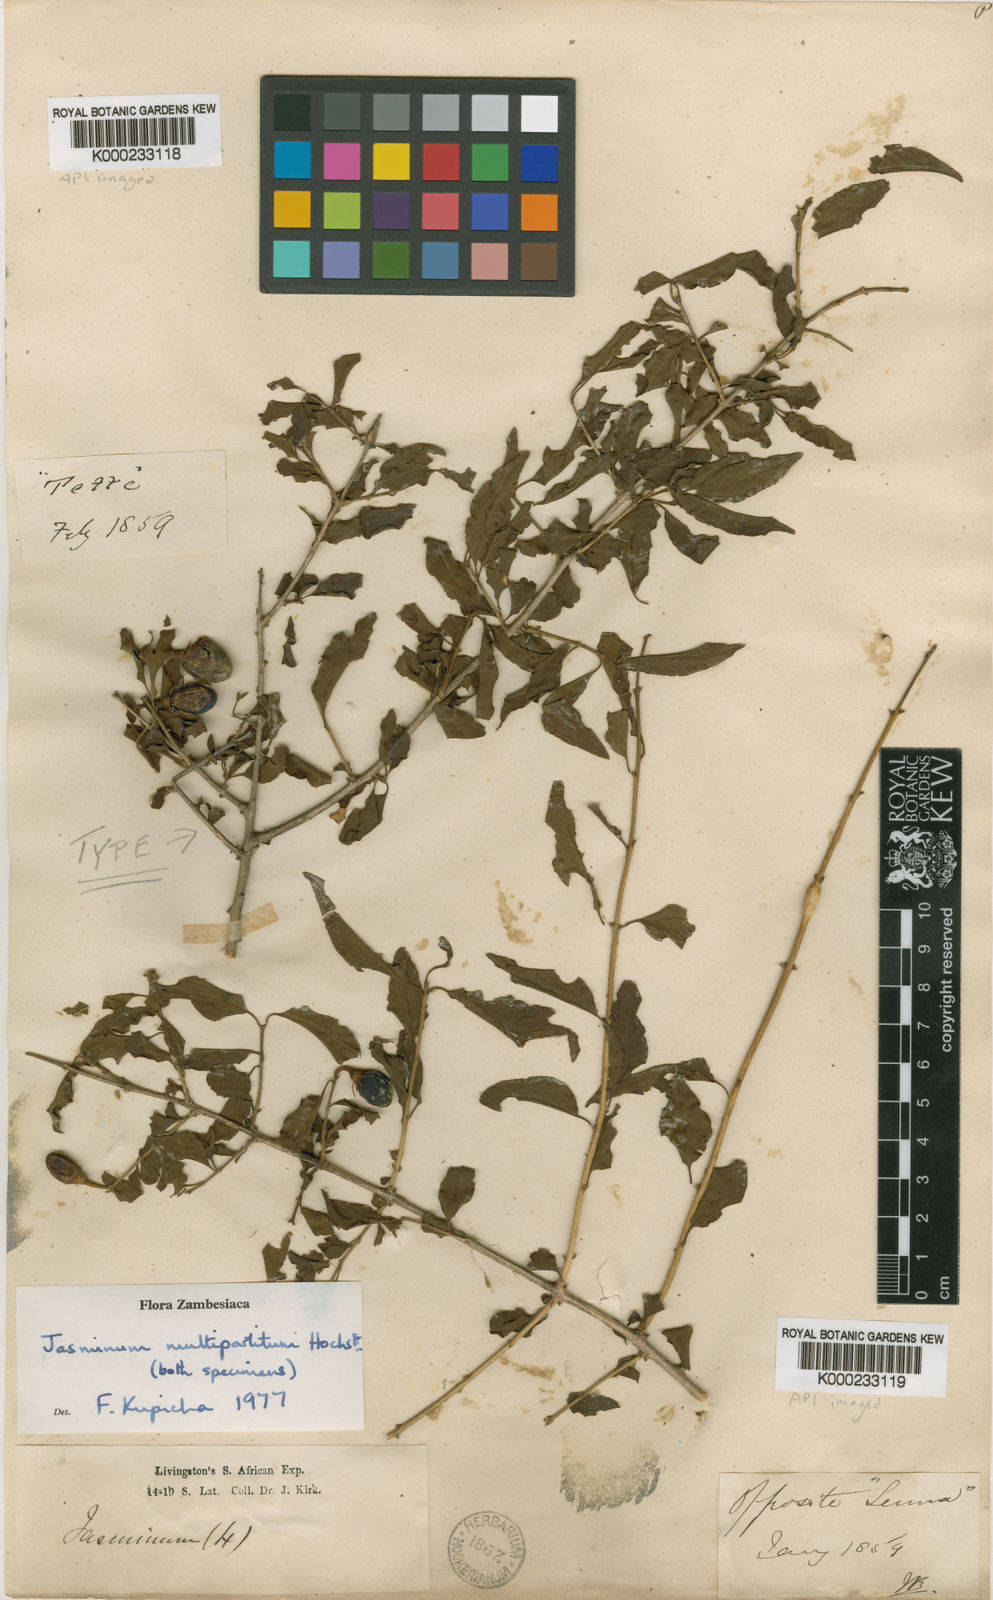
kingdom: Plantae
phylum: Tracheophyta
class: Magnoliopsida
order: Lamiales
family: Oleaceae
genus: Jasminum
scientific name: Jasminum
